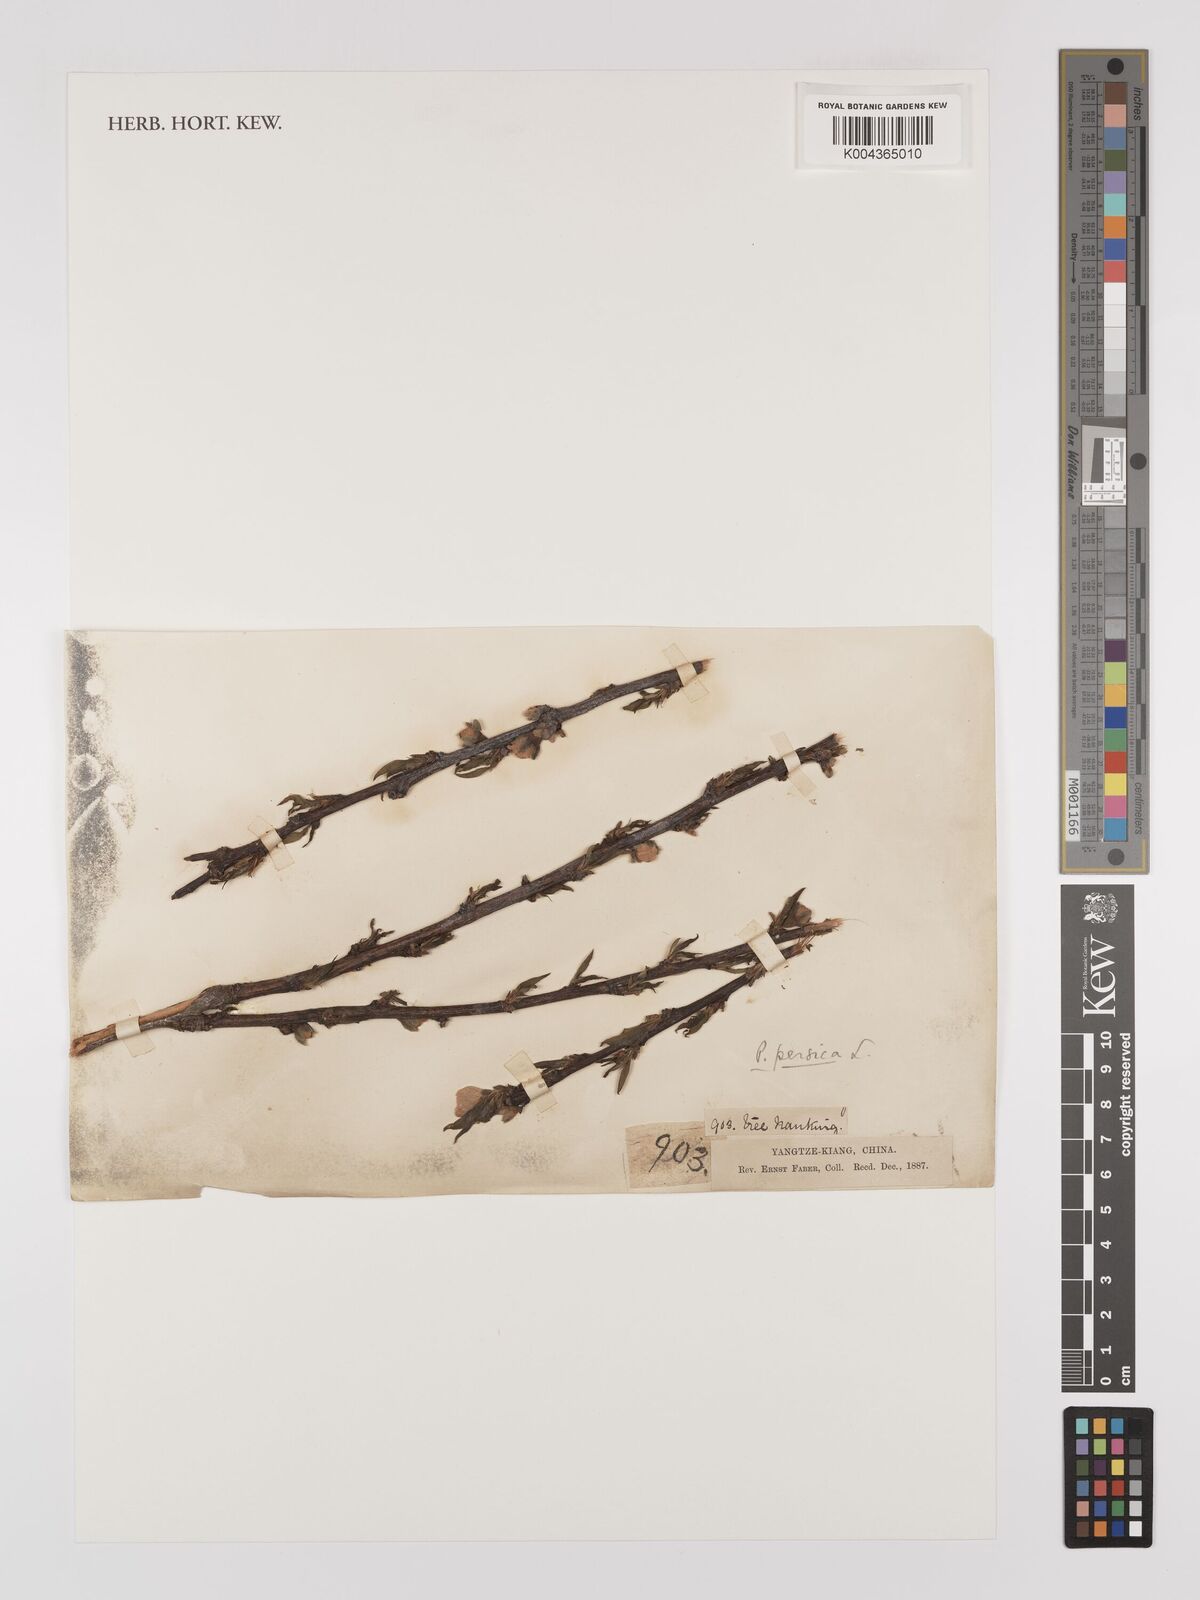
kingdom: Plantae
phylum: Tracheophyta
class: Magnoliopsida
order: Rosales
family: Rosaceae
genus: Prunus
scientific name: Prunus persica
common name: Peach
